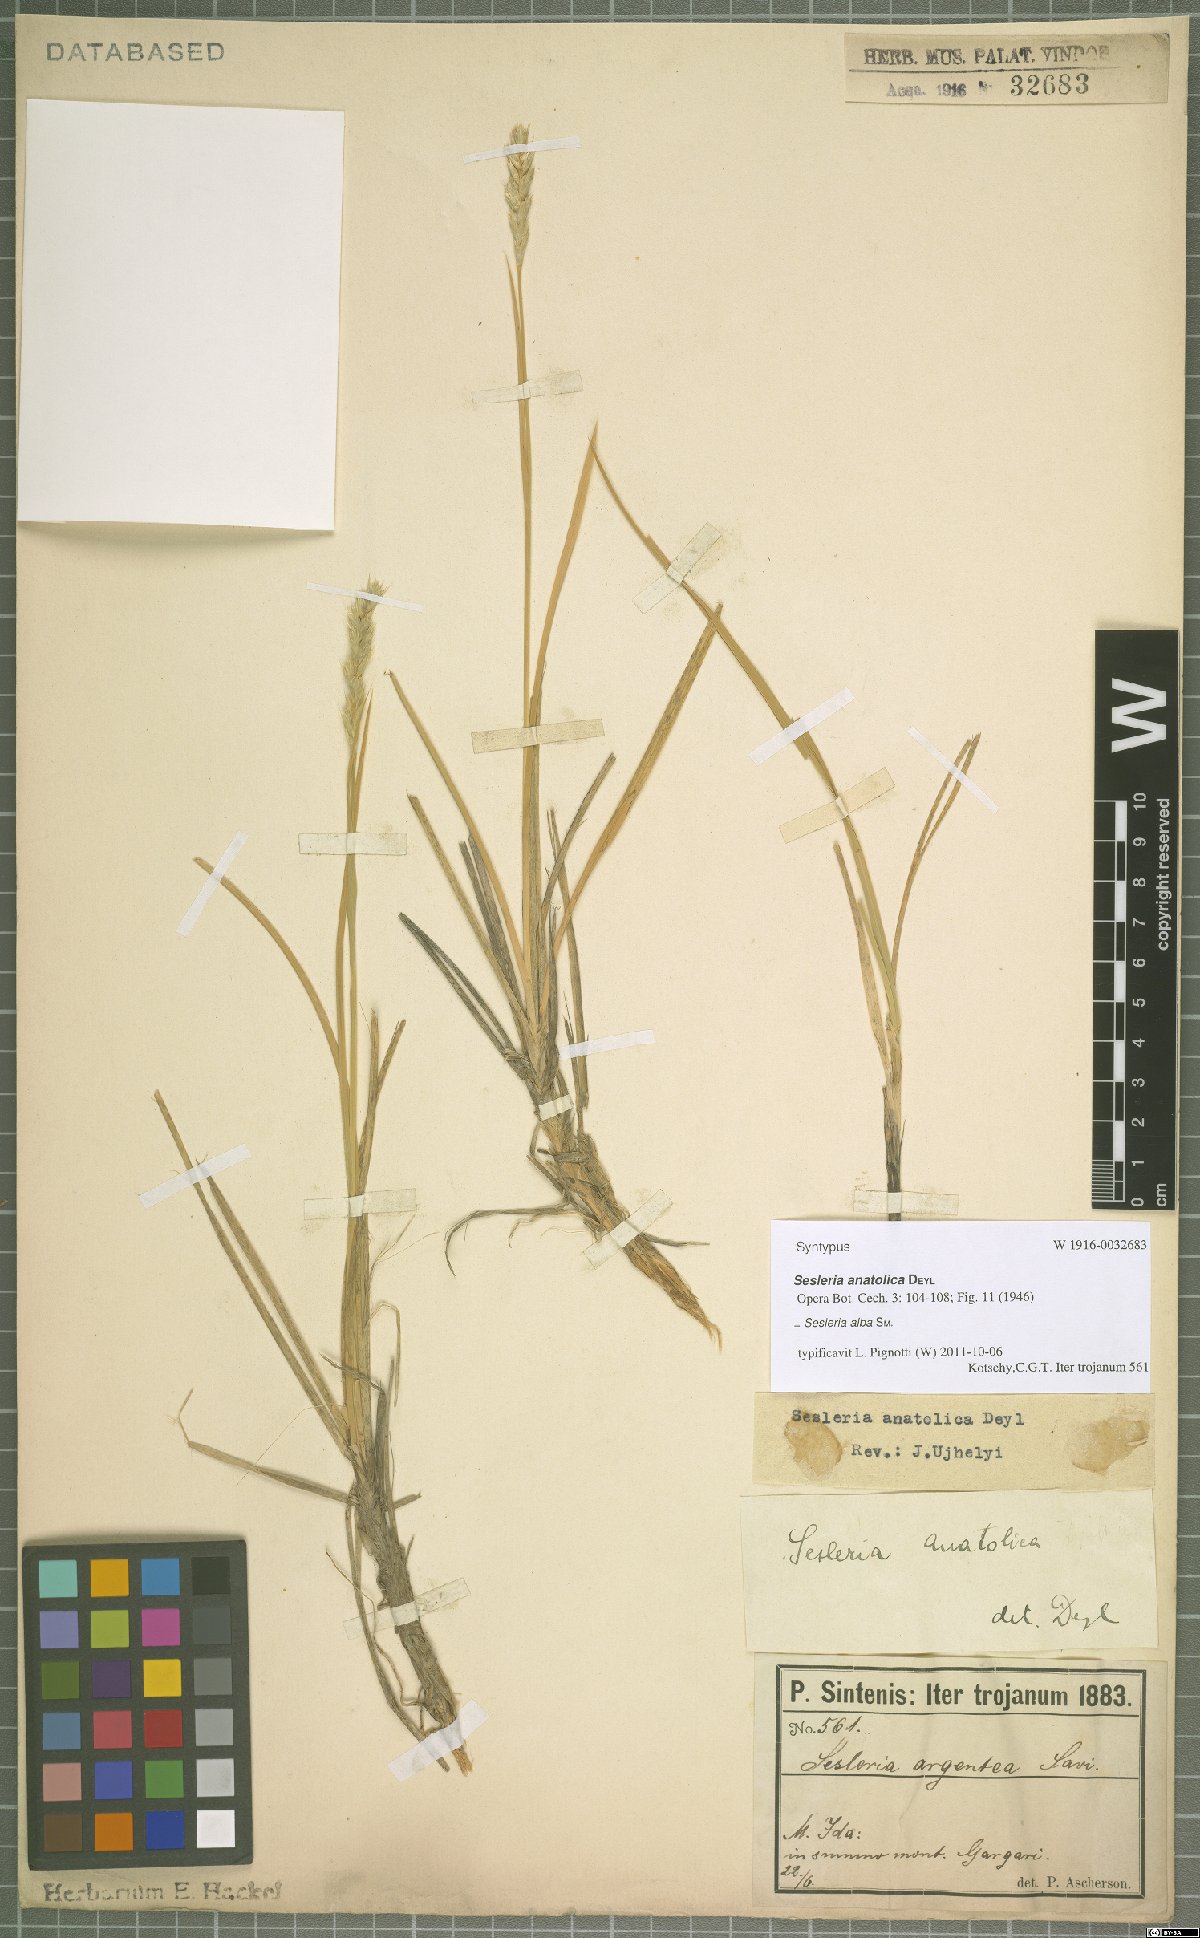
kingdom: Plantae
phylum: Tracheophyta
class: Liliopsida
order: Poales
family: Poaceae
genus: Sesleria
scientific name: Sesleria alba
